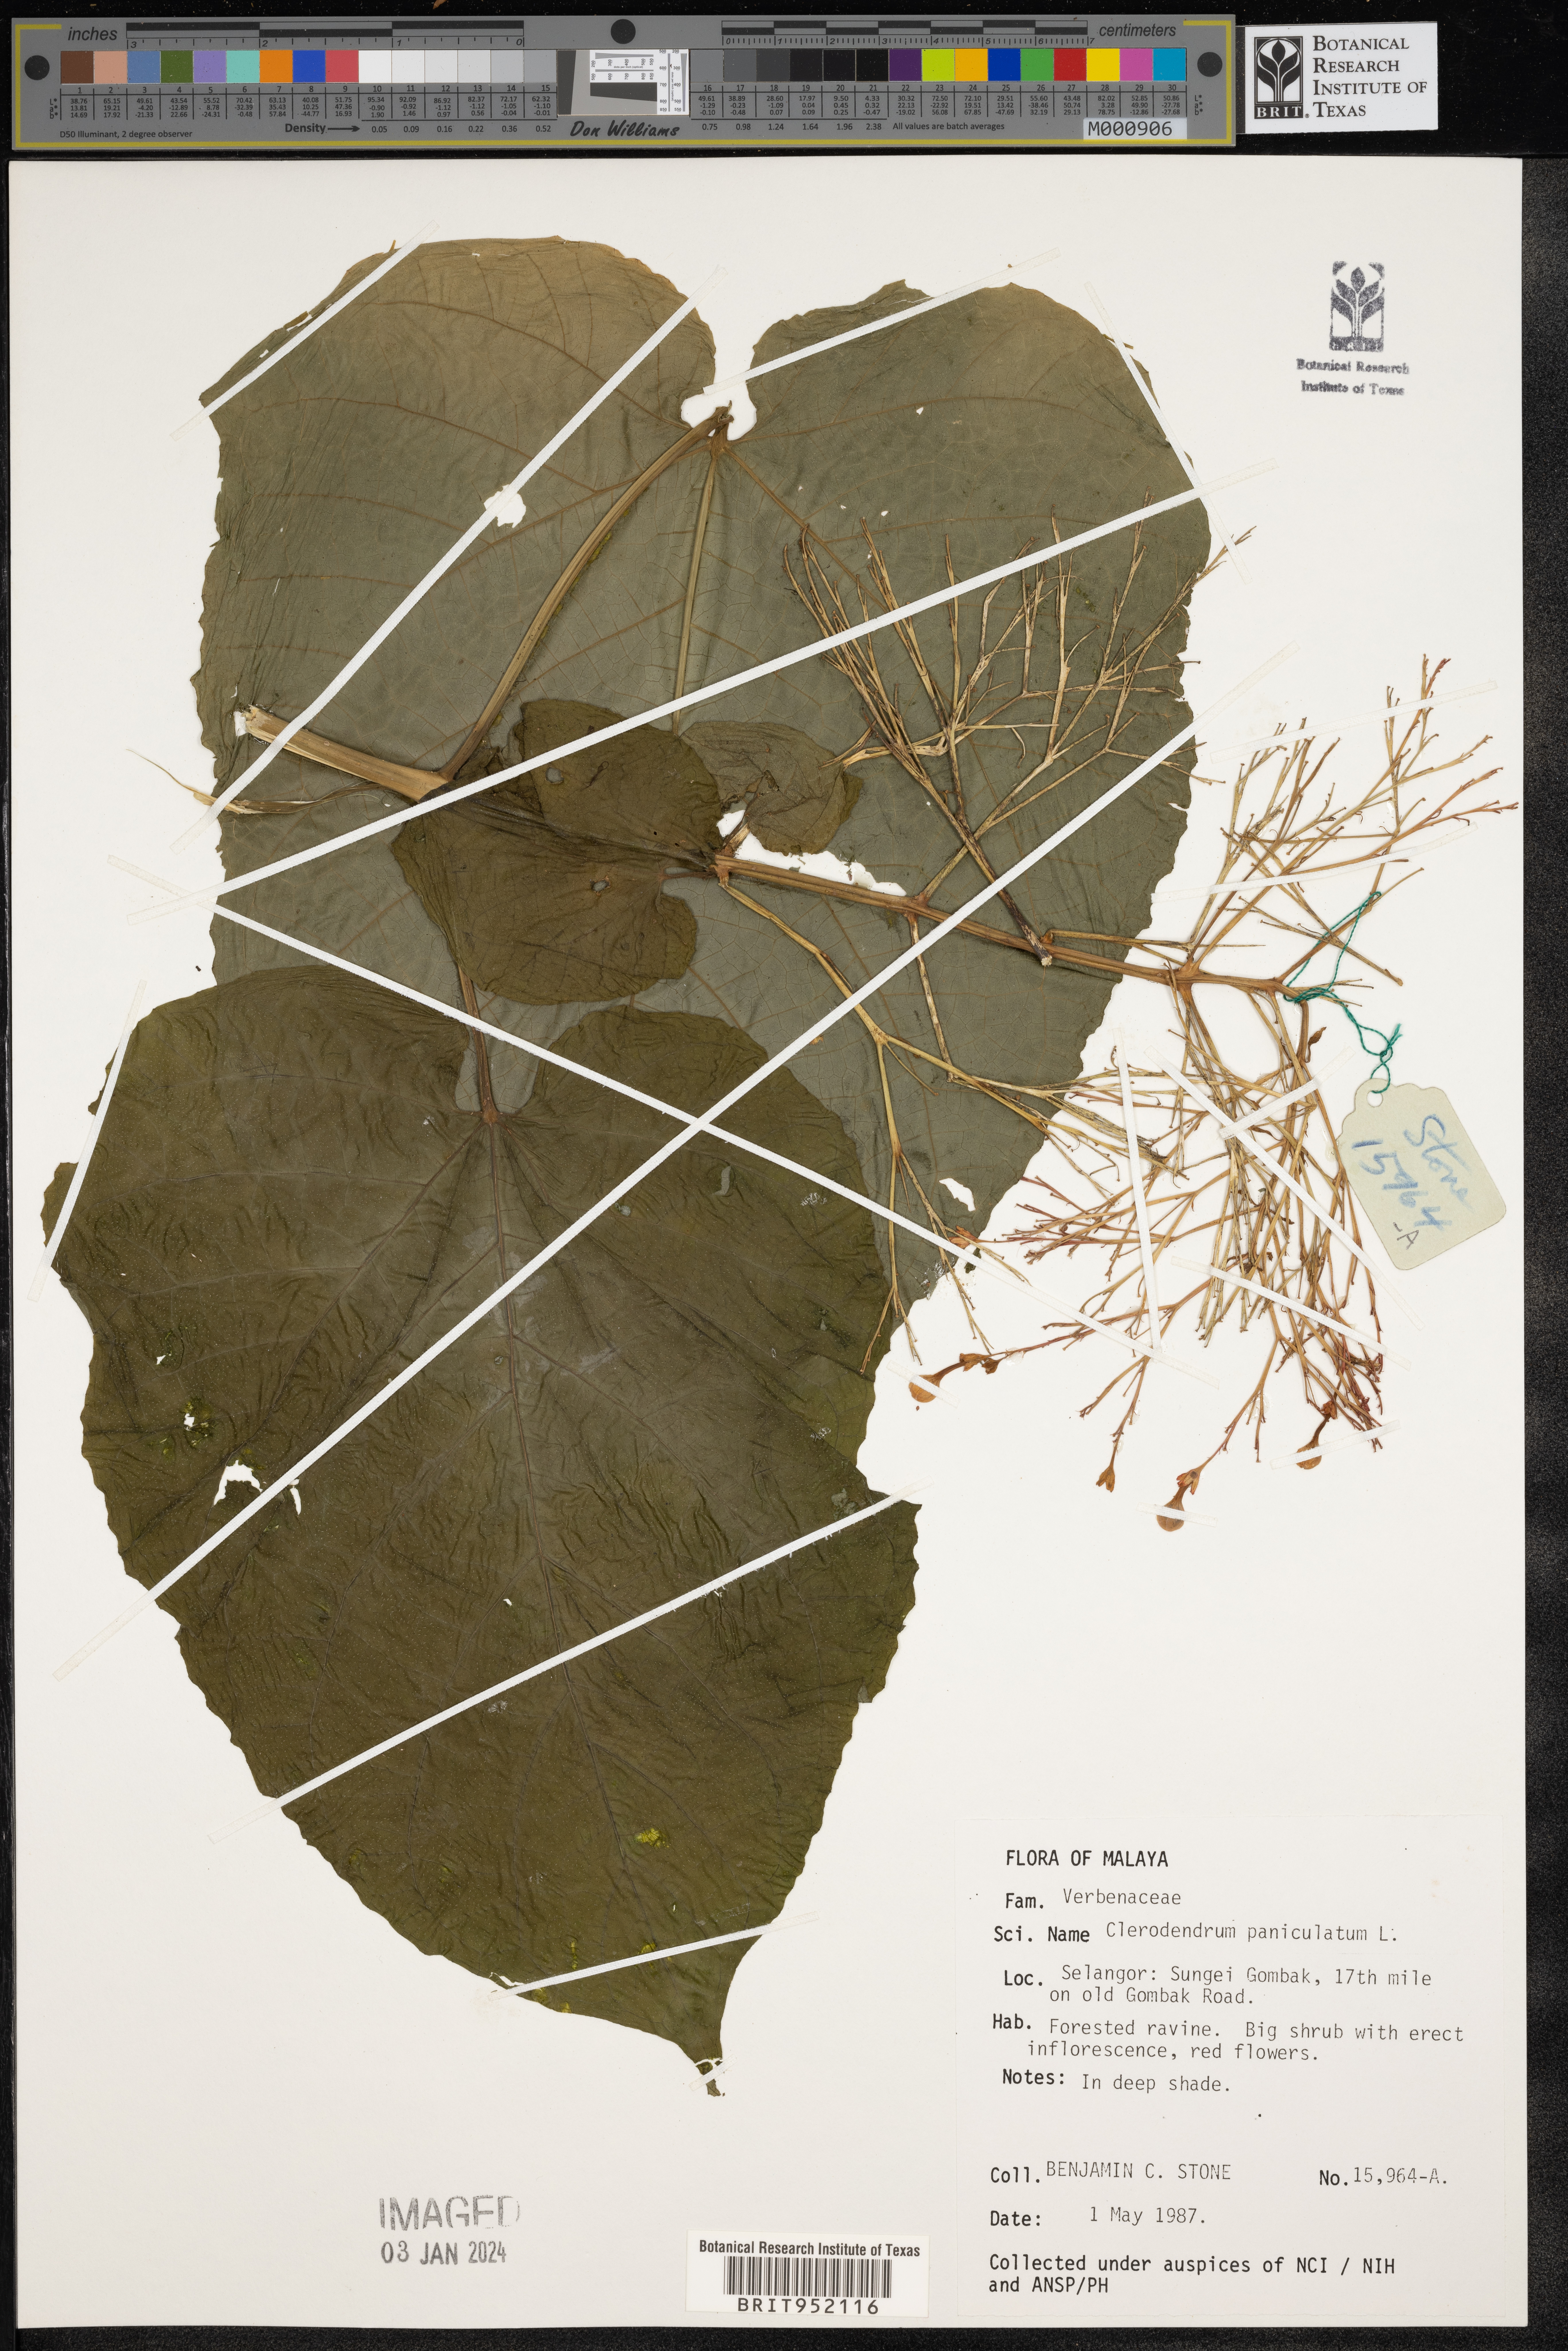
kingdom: Plantae
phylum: Tracheophyta
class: Magnoliopsida
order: Lamiales
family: Lamiaceae
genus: Clerodendrum
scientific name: Clerodendrum
